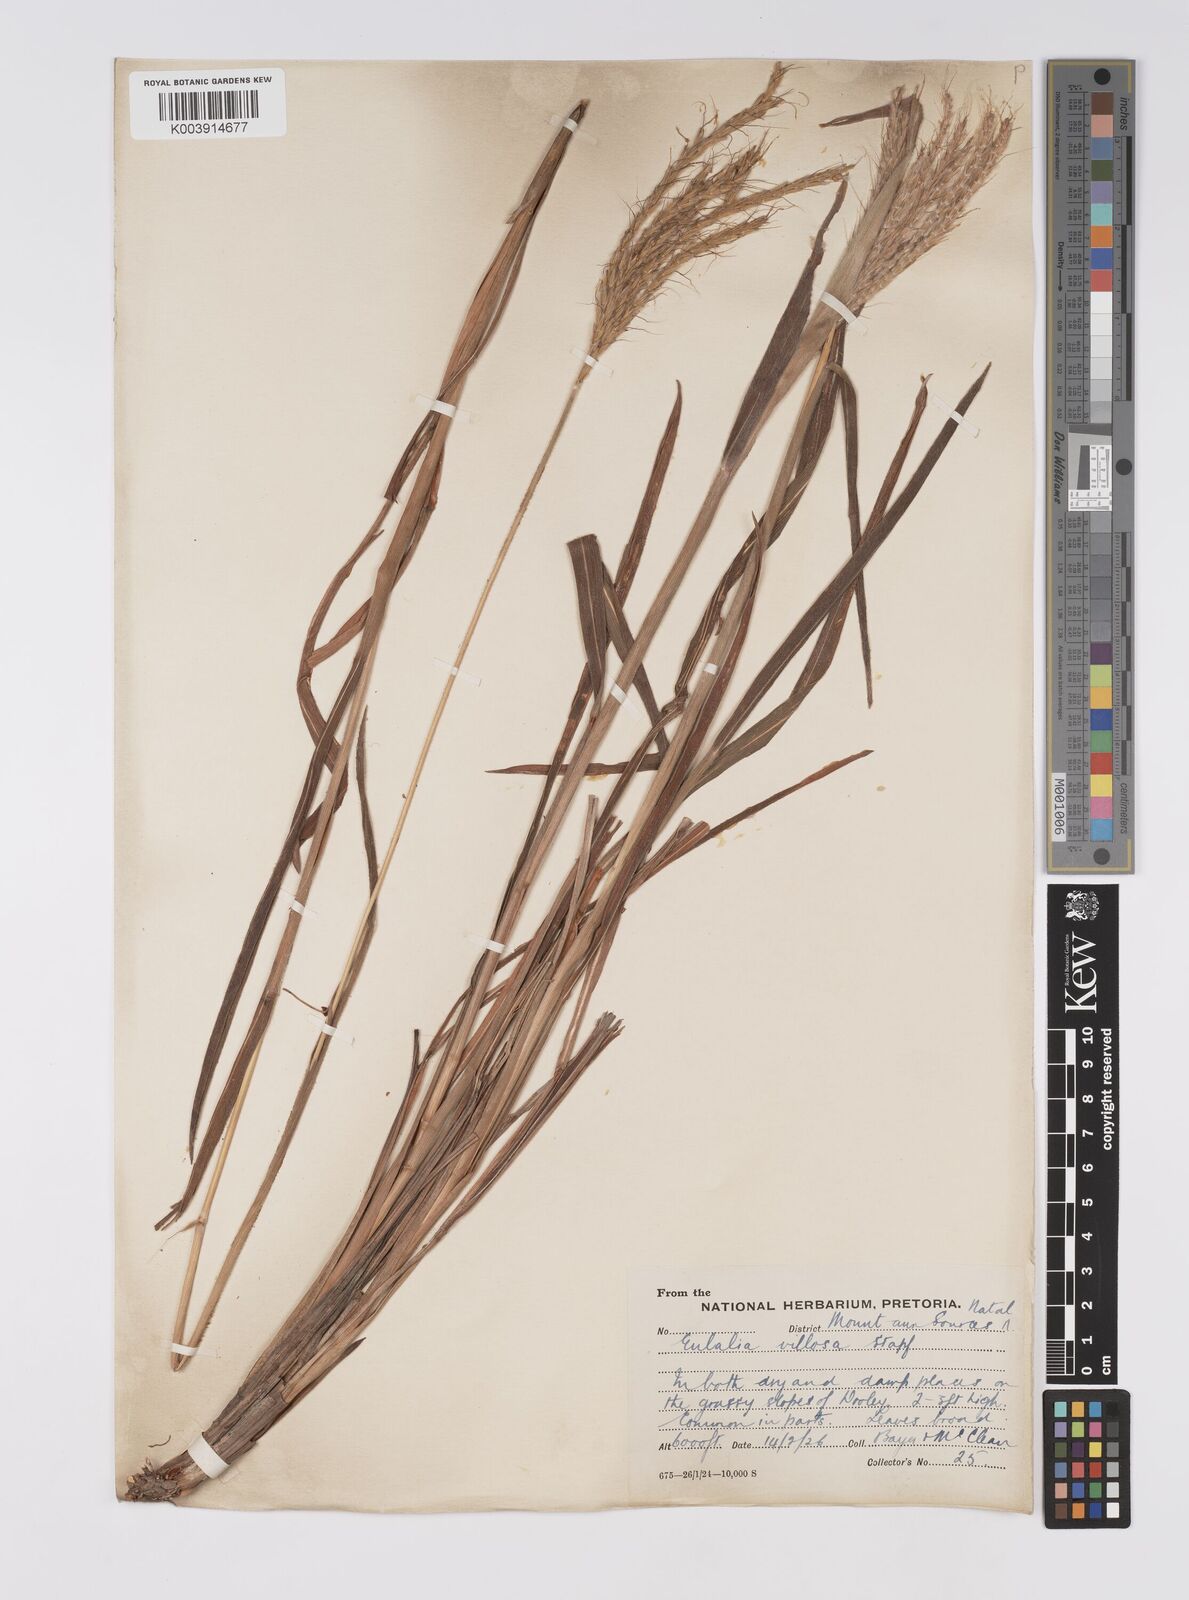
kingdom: Plantae
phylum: Tracheophyta
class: Liliopsida
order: Poales
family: Poaceae
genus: Eulalia
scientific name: Eulalia villosa
